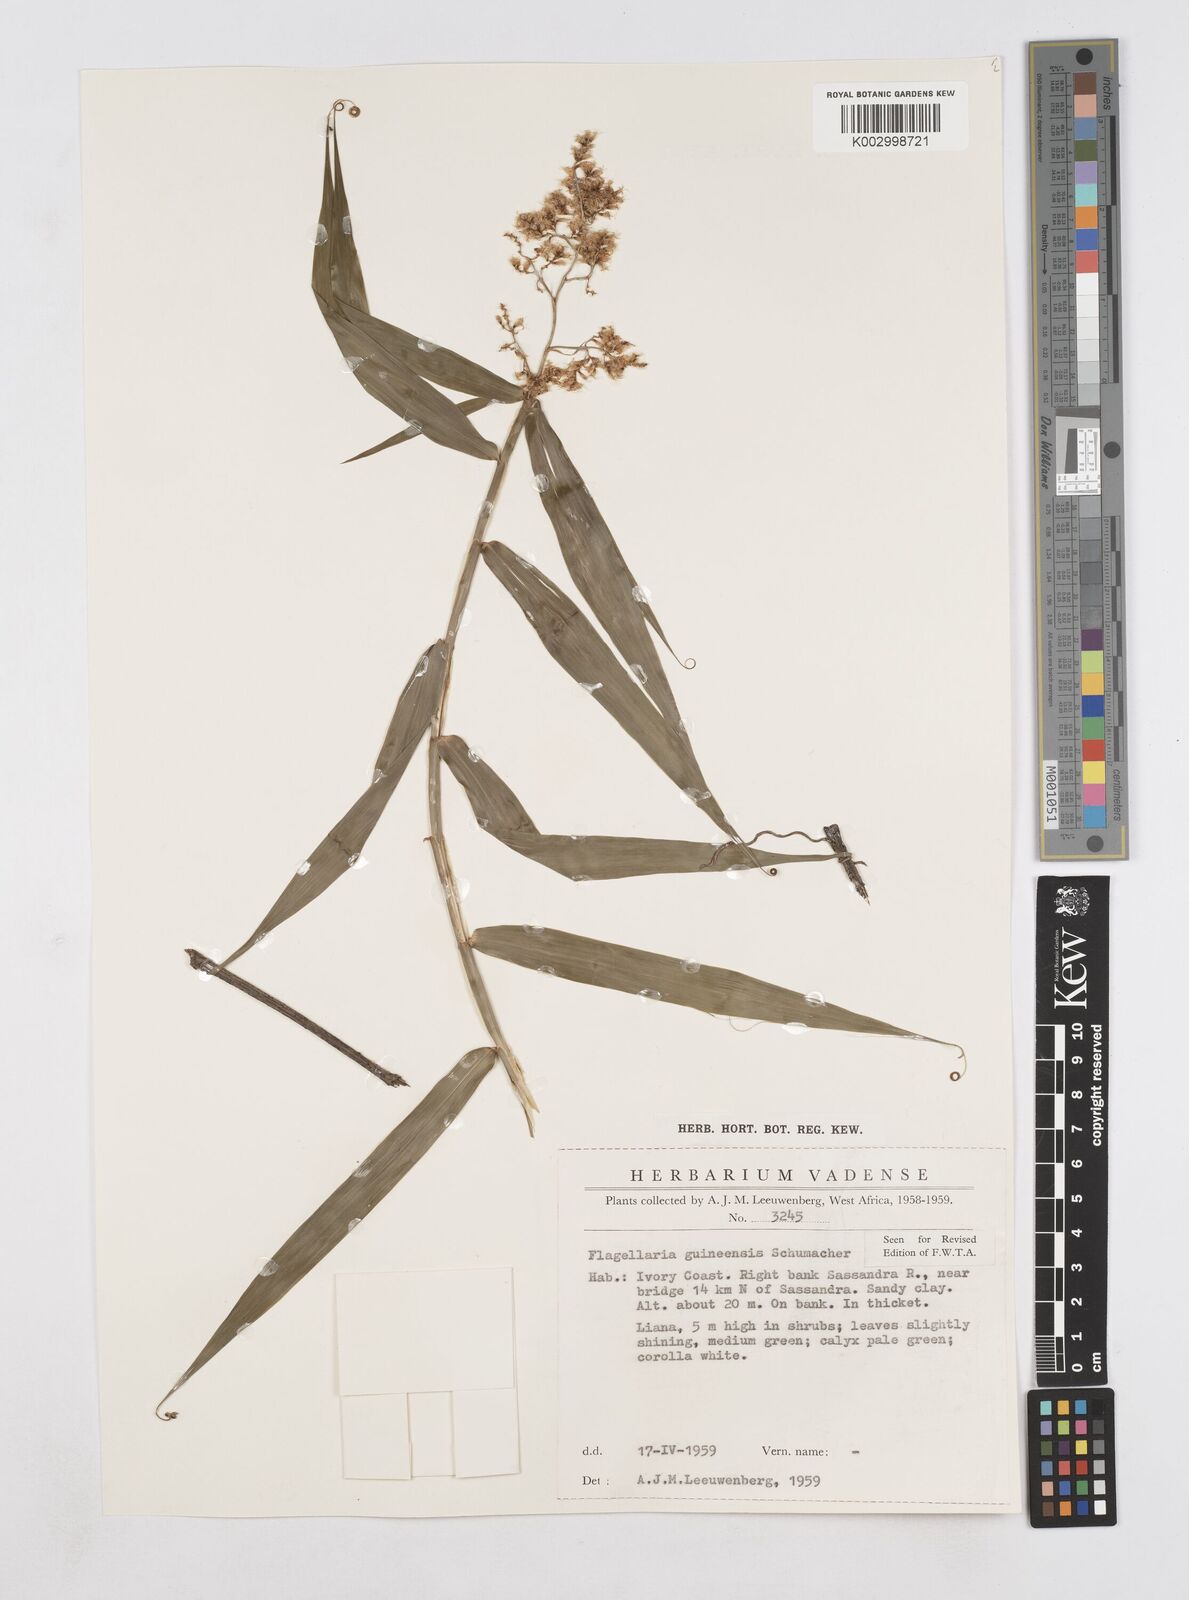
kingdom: Plantae
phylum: Tracheophyta
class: Liliopsida
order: Poales
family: Flagellariaceae
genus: Flagellaria
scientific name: Flagellaria guineensis
